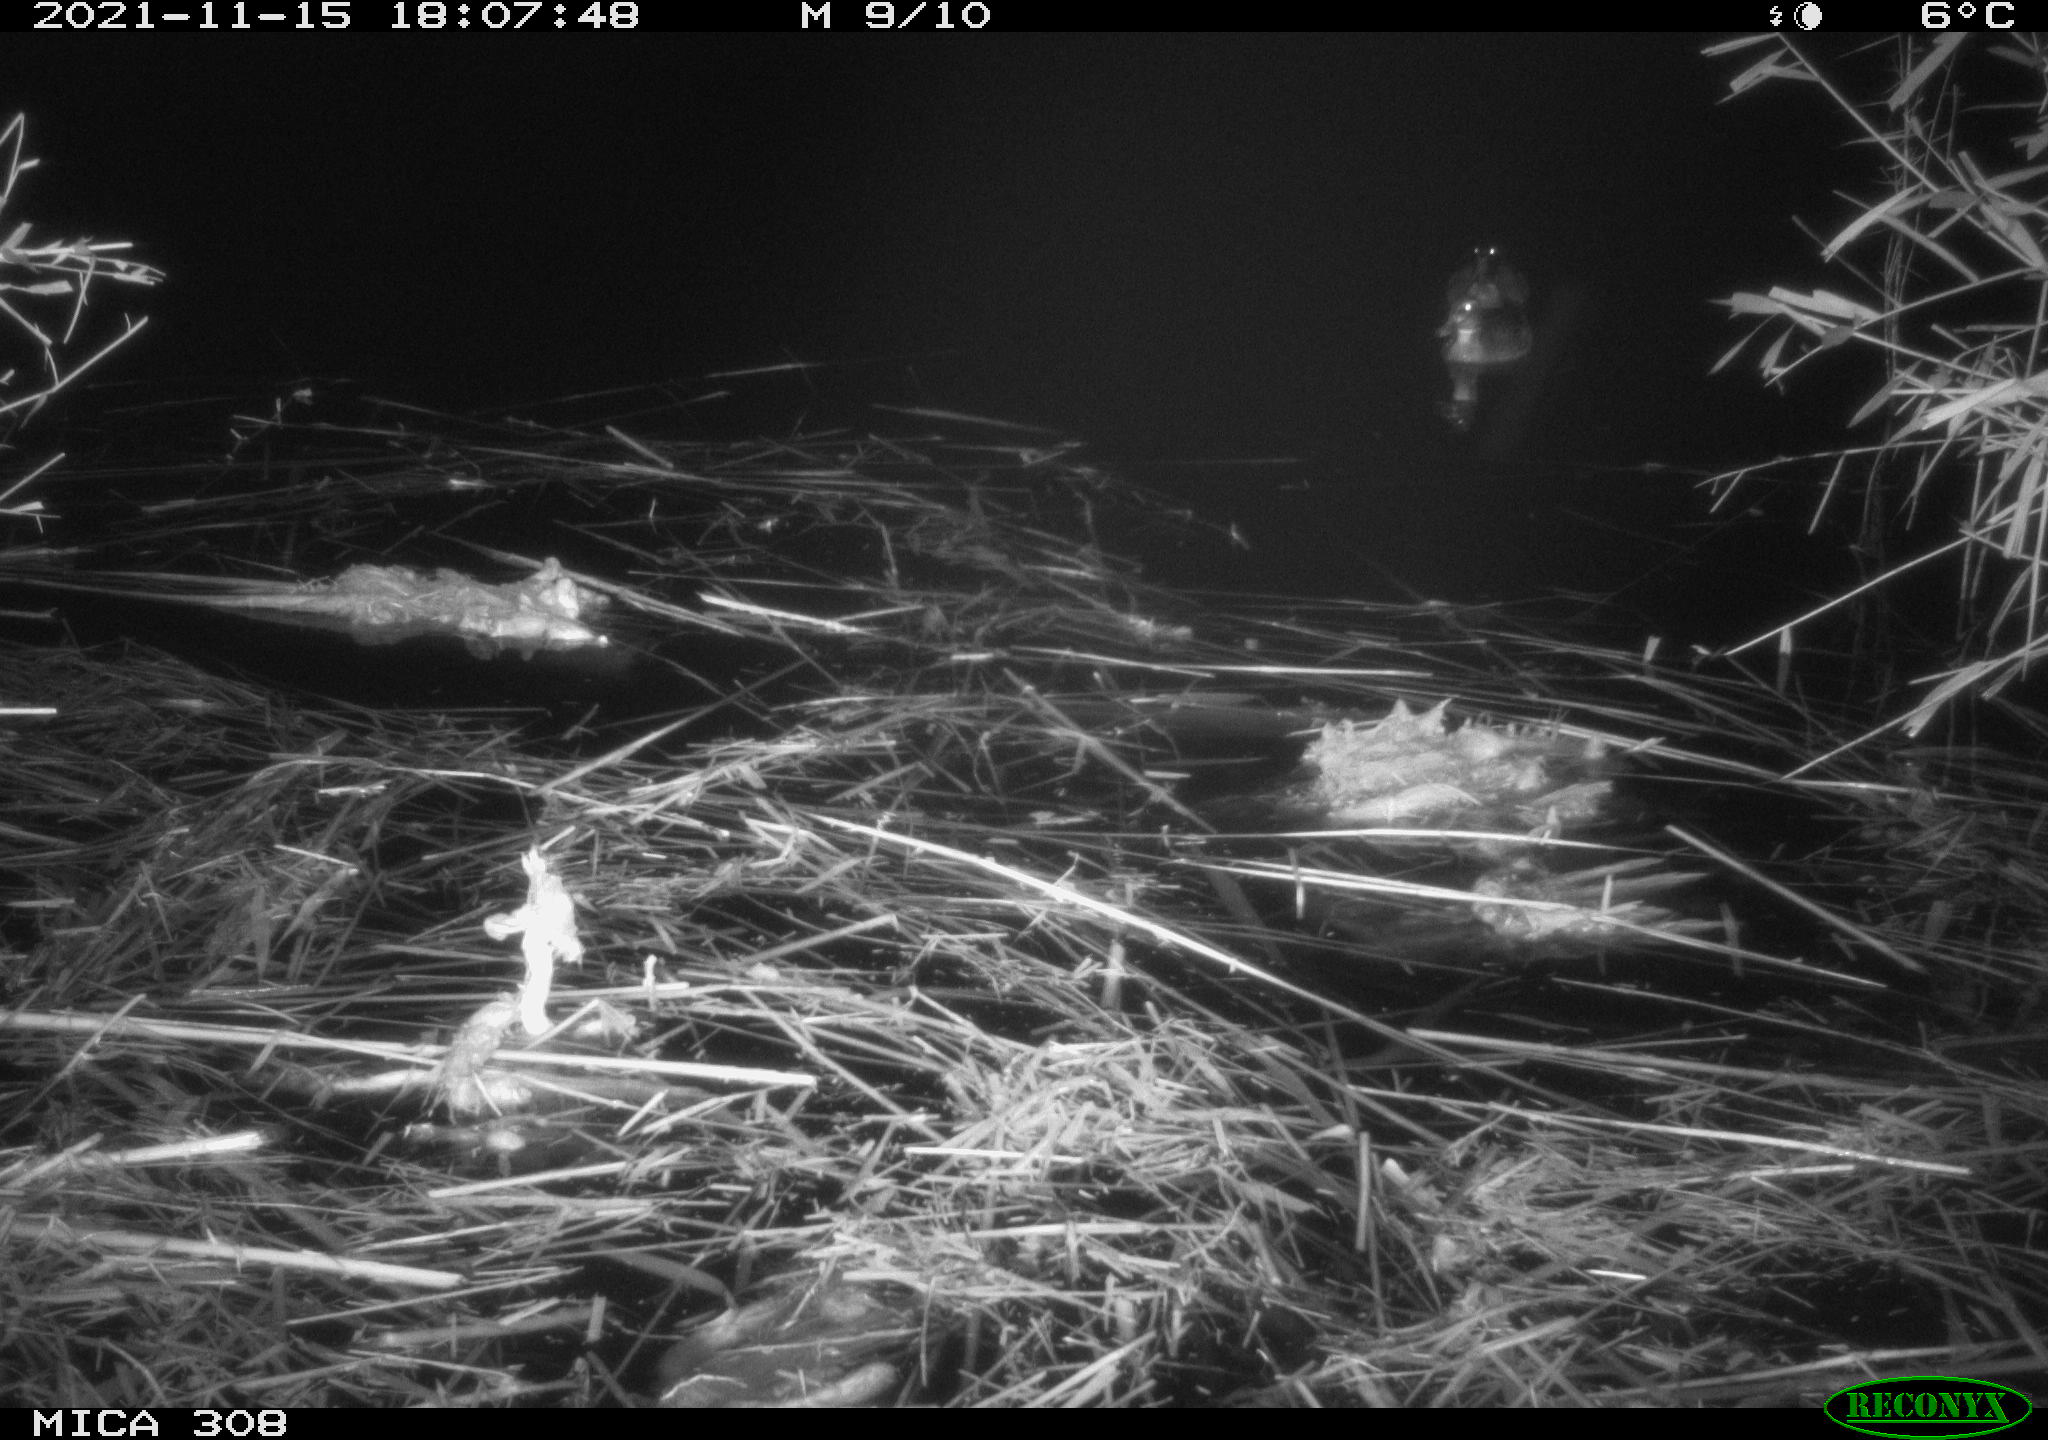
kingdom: Animalia
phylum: Chordata
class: Mammalia
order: Rodentia
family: Muridae
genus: Rattus
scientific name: Rattus norvegicus
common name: Brown rat
